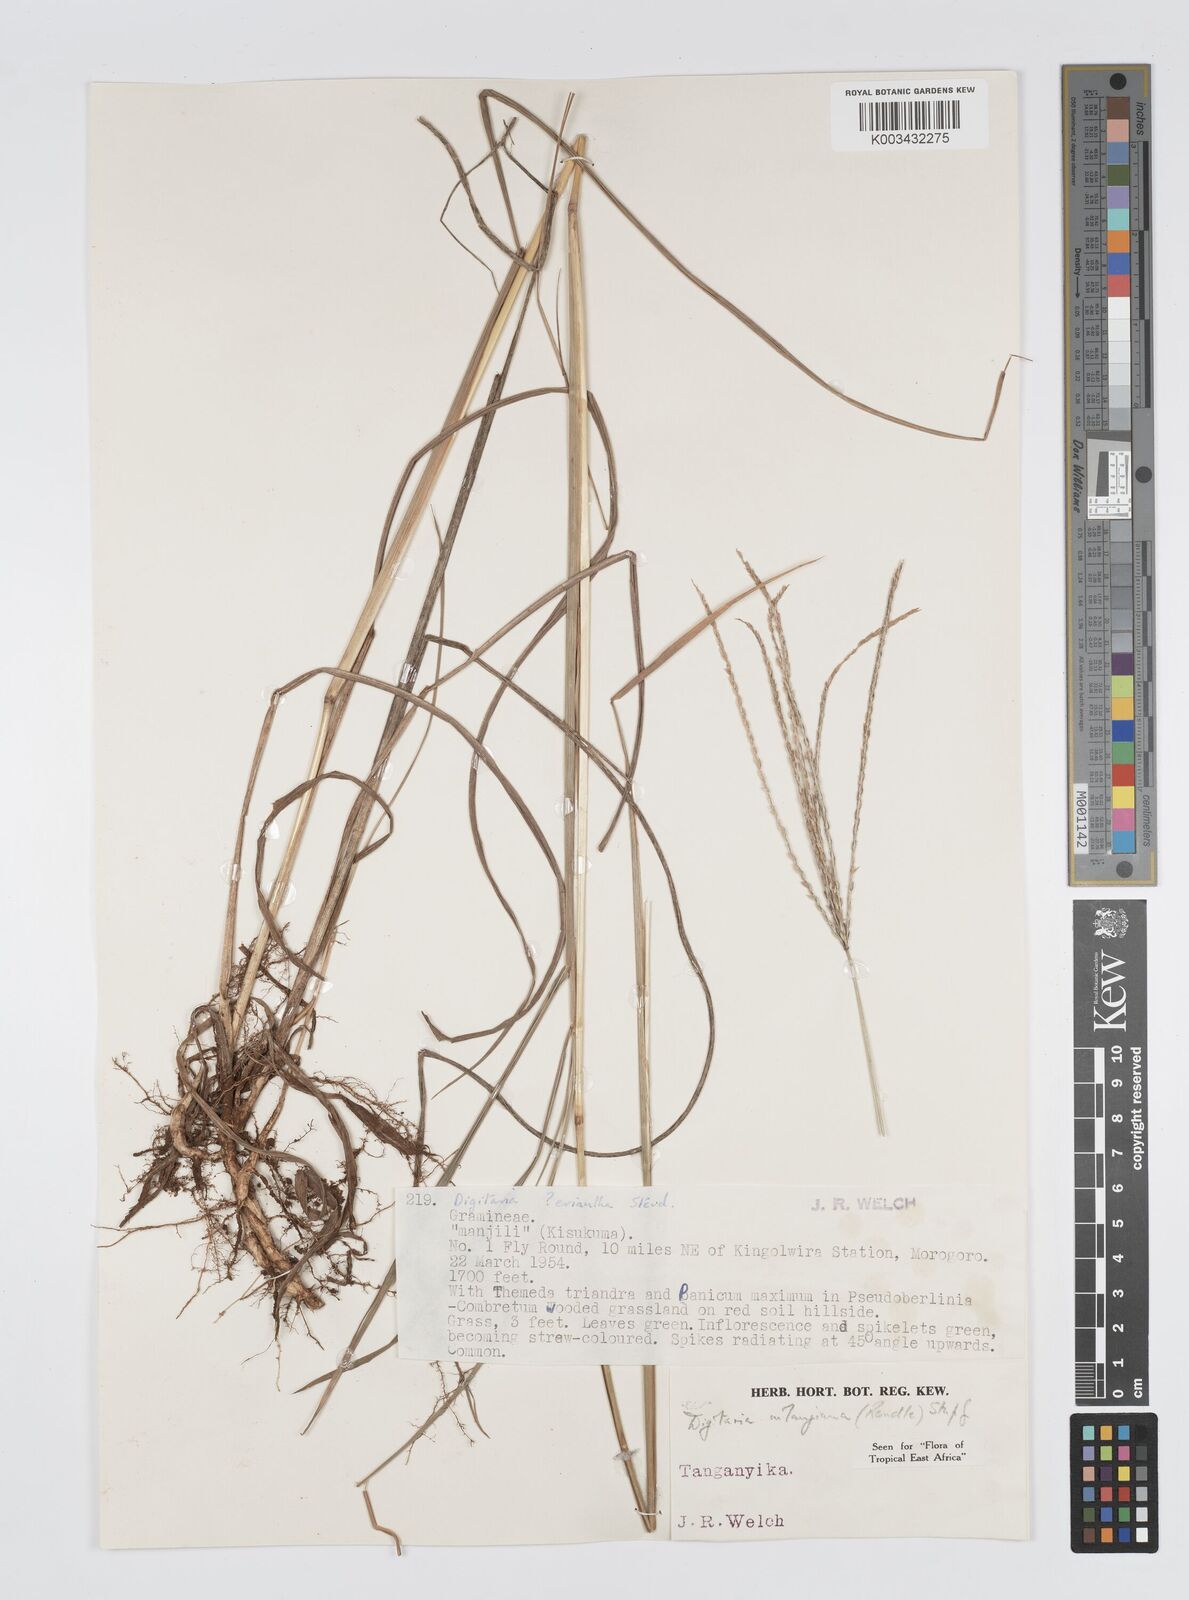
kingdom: Plantae
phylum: Tracheophyta
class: Liliopsida
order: Poales
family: Poaceae
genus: Digitaria
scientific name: Digitaria milanjiana
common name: Madagascar crabgrass
